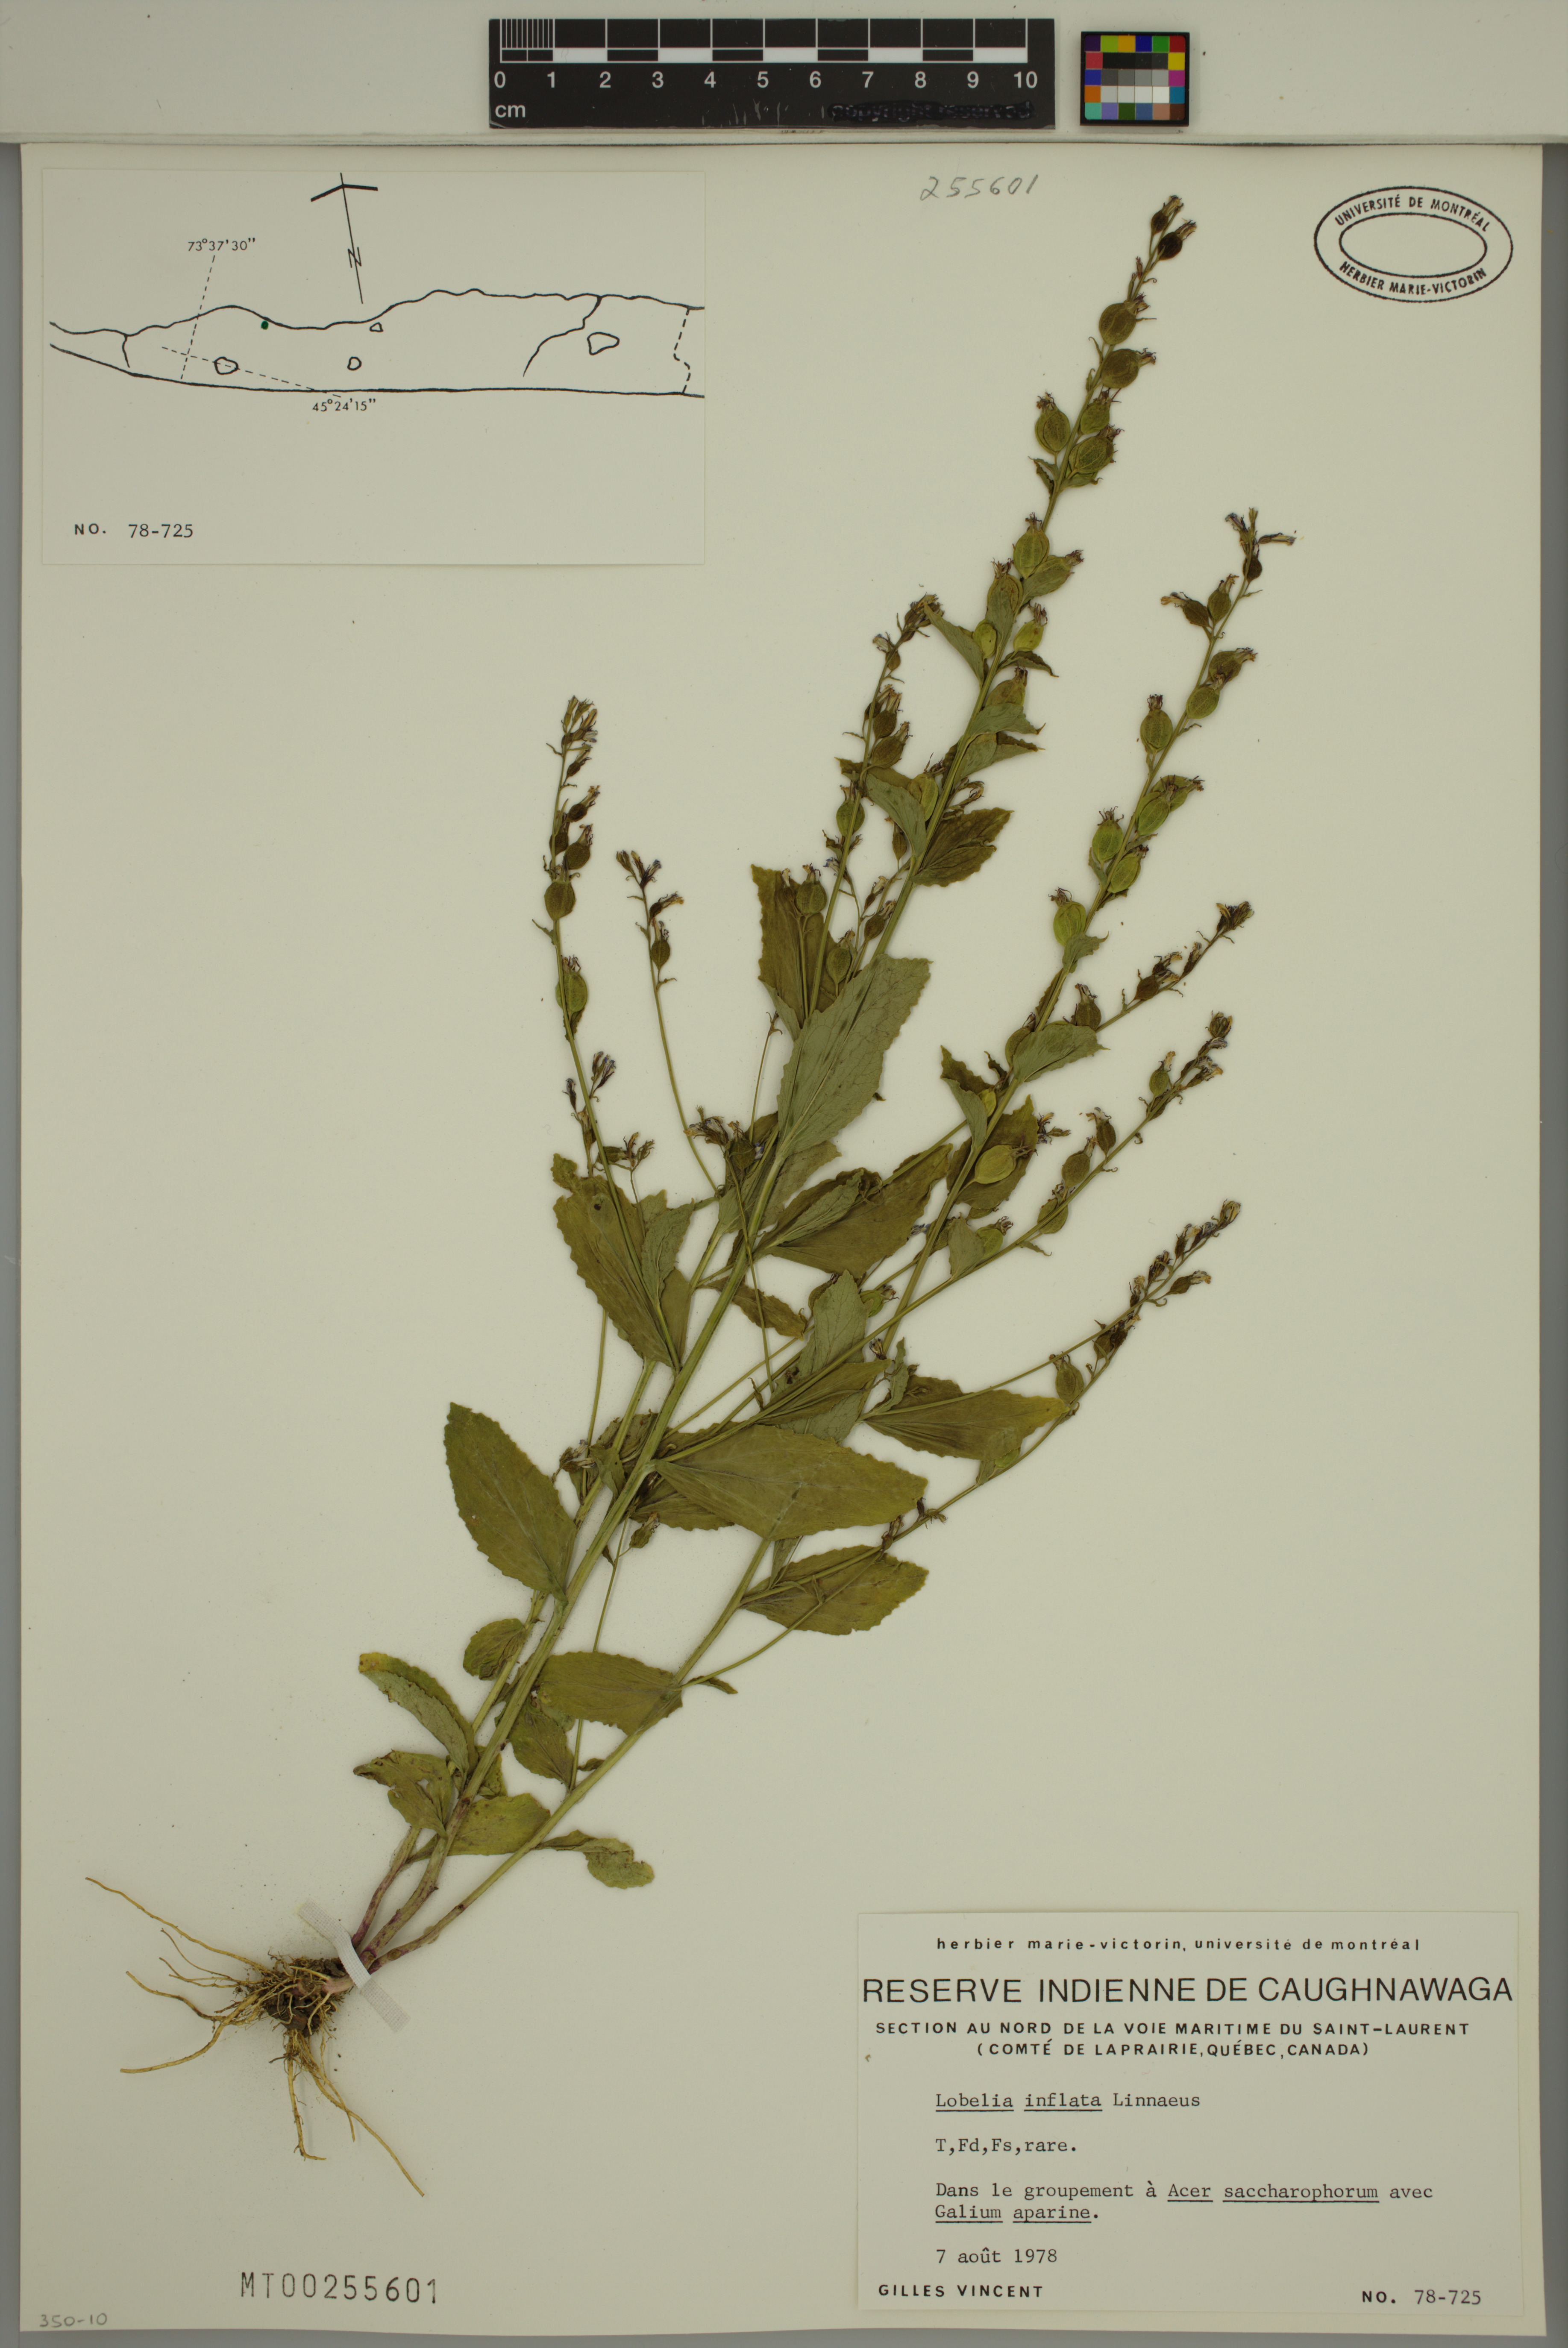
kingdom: Plantae
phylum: Tracheophyta
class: Magnoliopsida
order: Asterales
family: Campanulaceae
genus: Lobelia
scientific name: Lobelia inflata
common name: Indian tobacco
